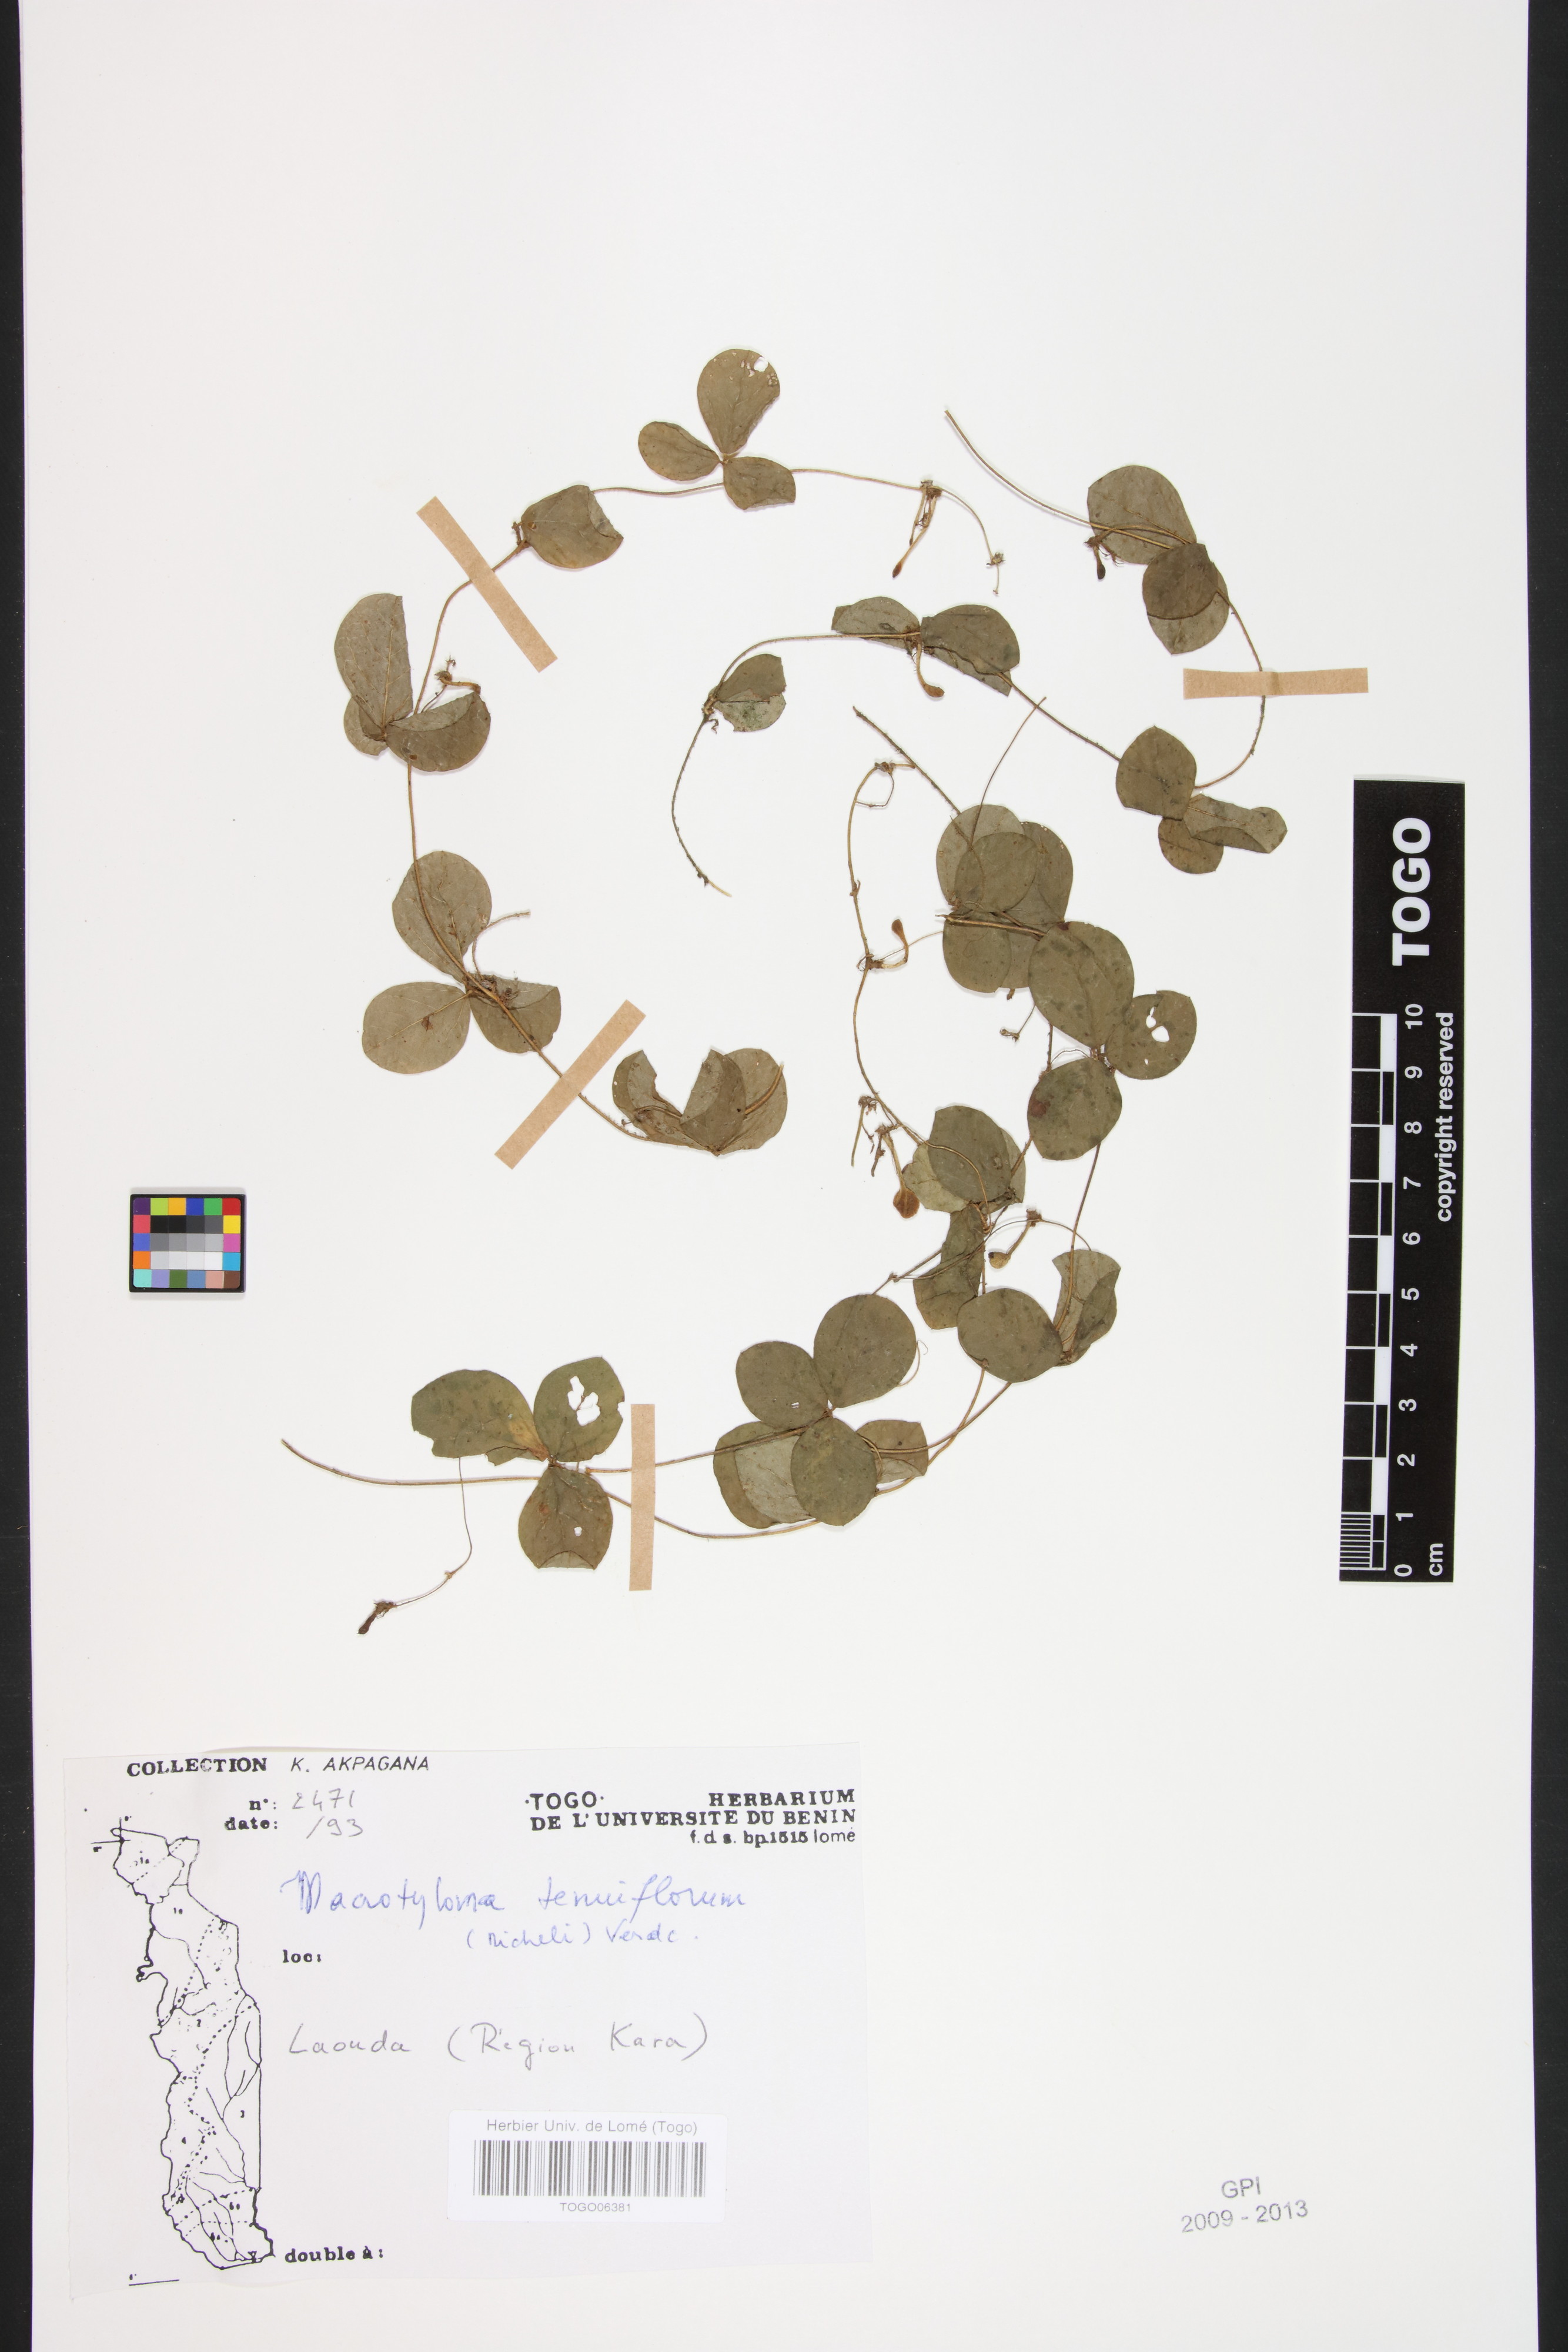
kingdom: Plantae
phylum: Tracheophyta
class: Magnoliopsida
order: Fabales
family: Fabaceae
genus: Macrotyloma
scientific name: Macrotyloma tenuiflorum
